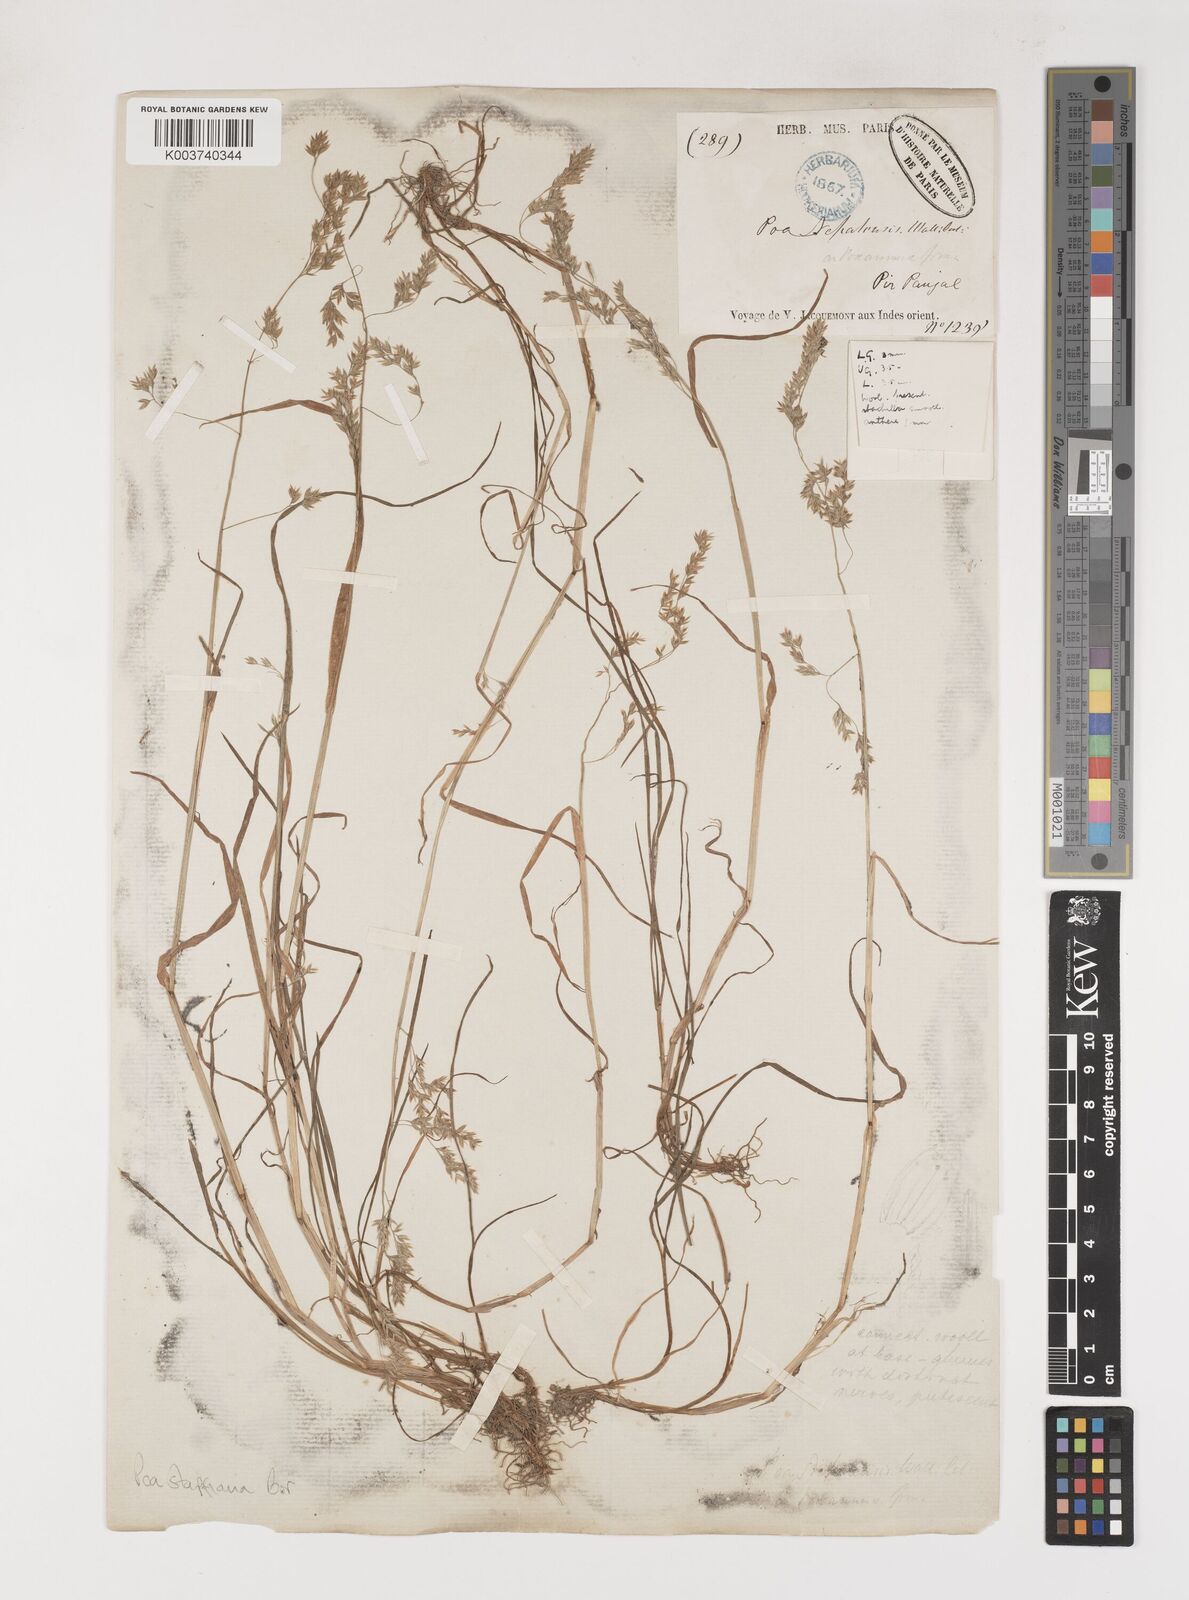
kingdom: Plantae
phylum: Tracheophyta
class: Liliopsida
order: Poales
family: Poaceae
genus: Poa
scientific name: Poa stapfiana
